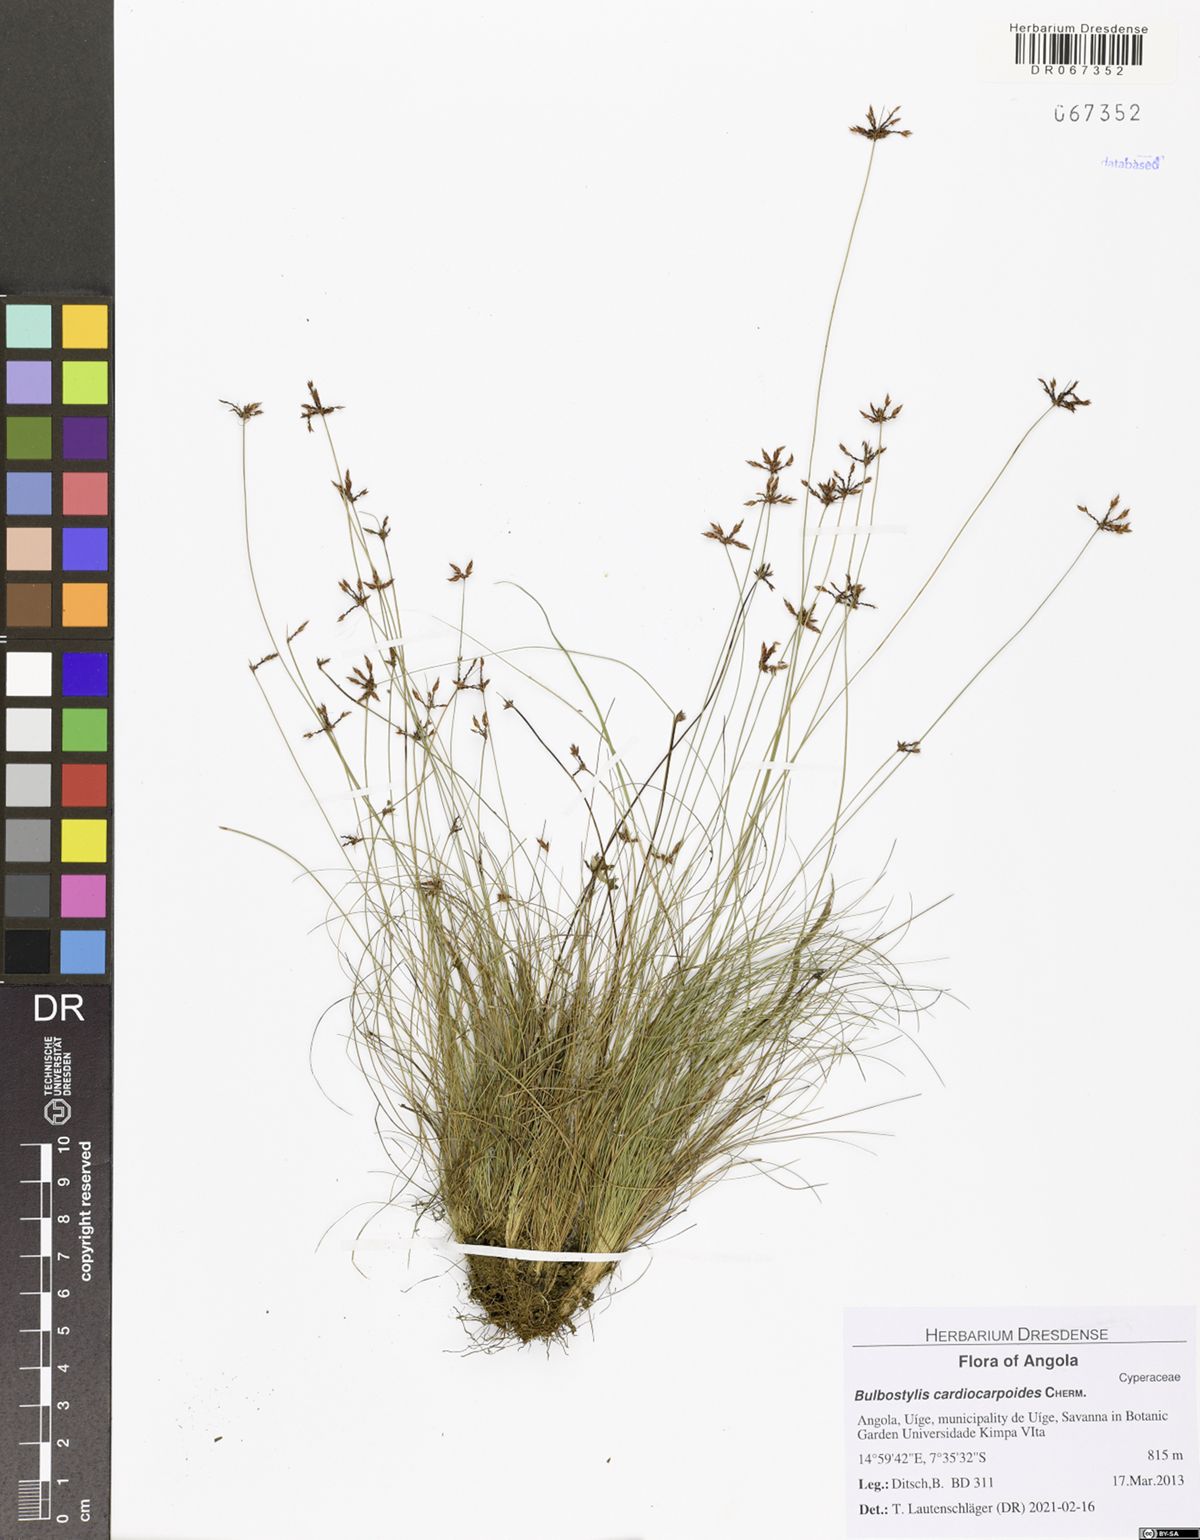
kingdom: Plantae
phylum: Tracheophyta
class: Liliopsida
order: Poales
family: Cyperaceae
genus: Bulbostylis
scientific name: Bulbostylis cardiocarpoides
